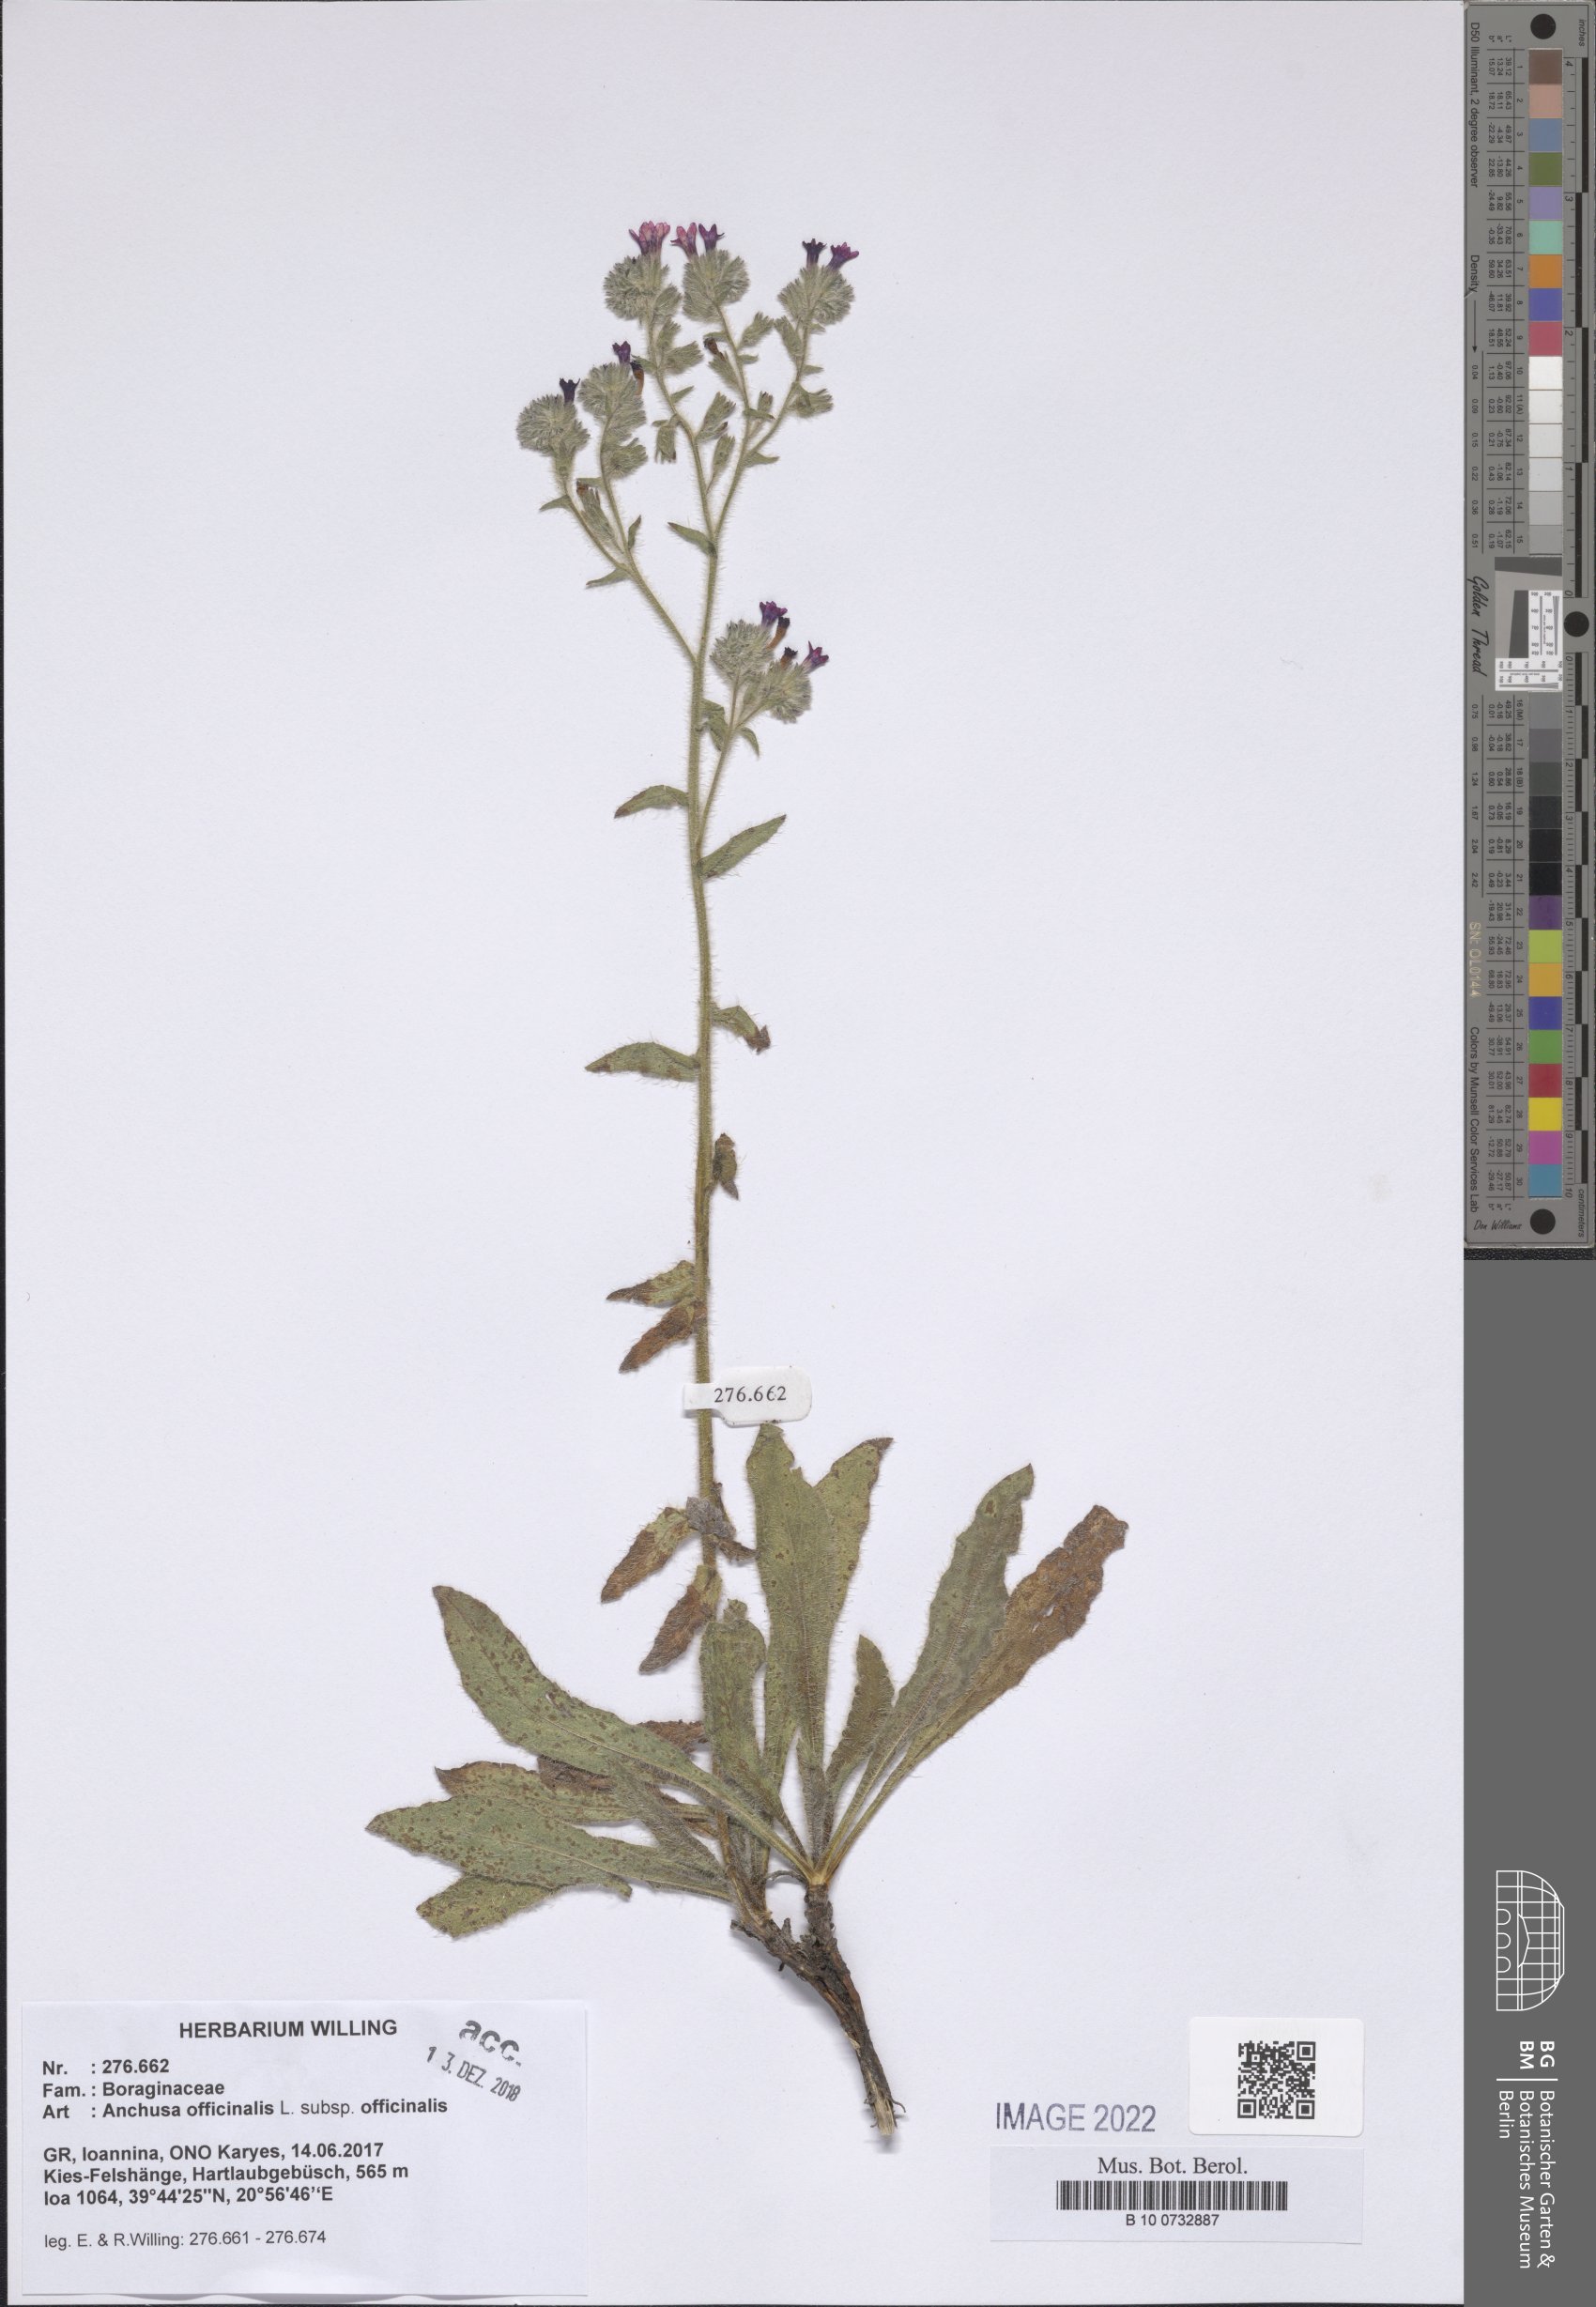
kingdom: Plantae
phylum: Tracheophyta
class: Magnoliopsida
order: Boraginales
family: Boraginaceae
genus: Anchusa
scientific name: Anchusa officinalis
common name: Alkanet
